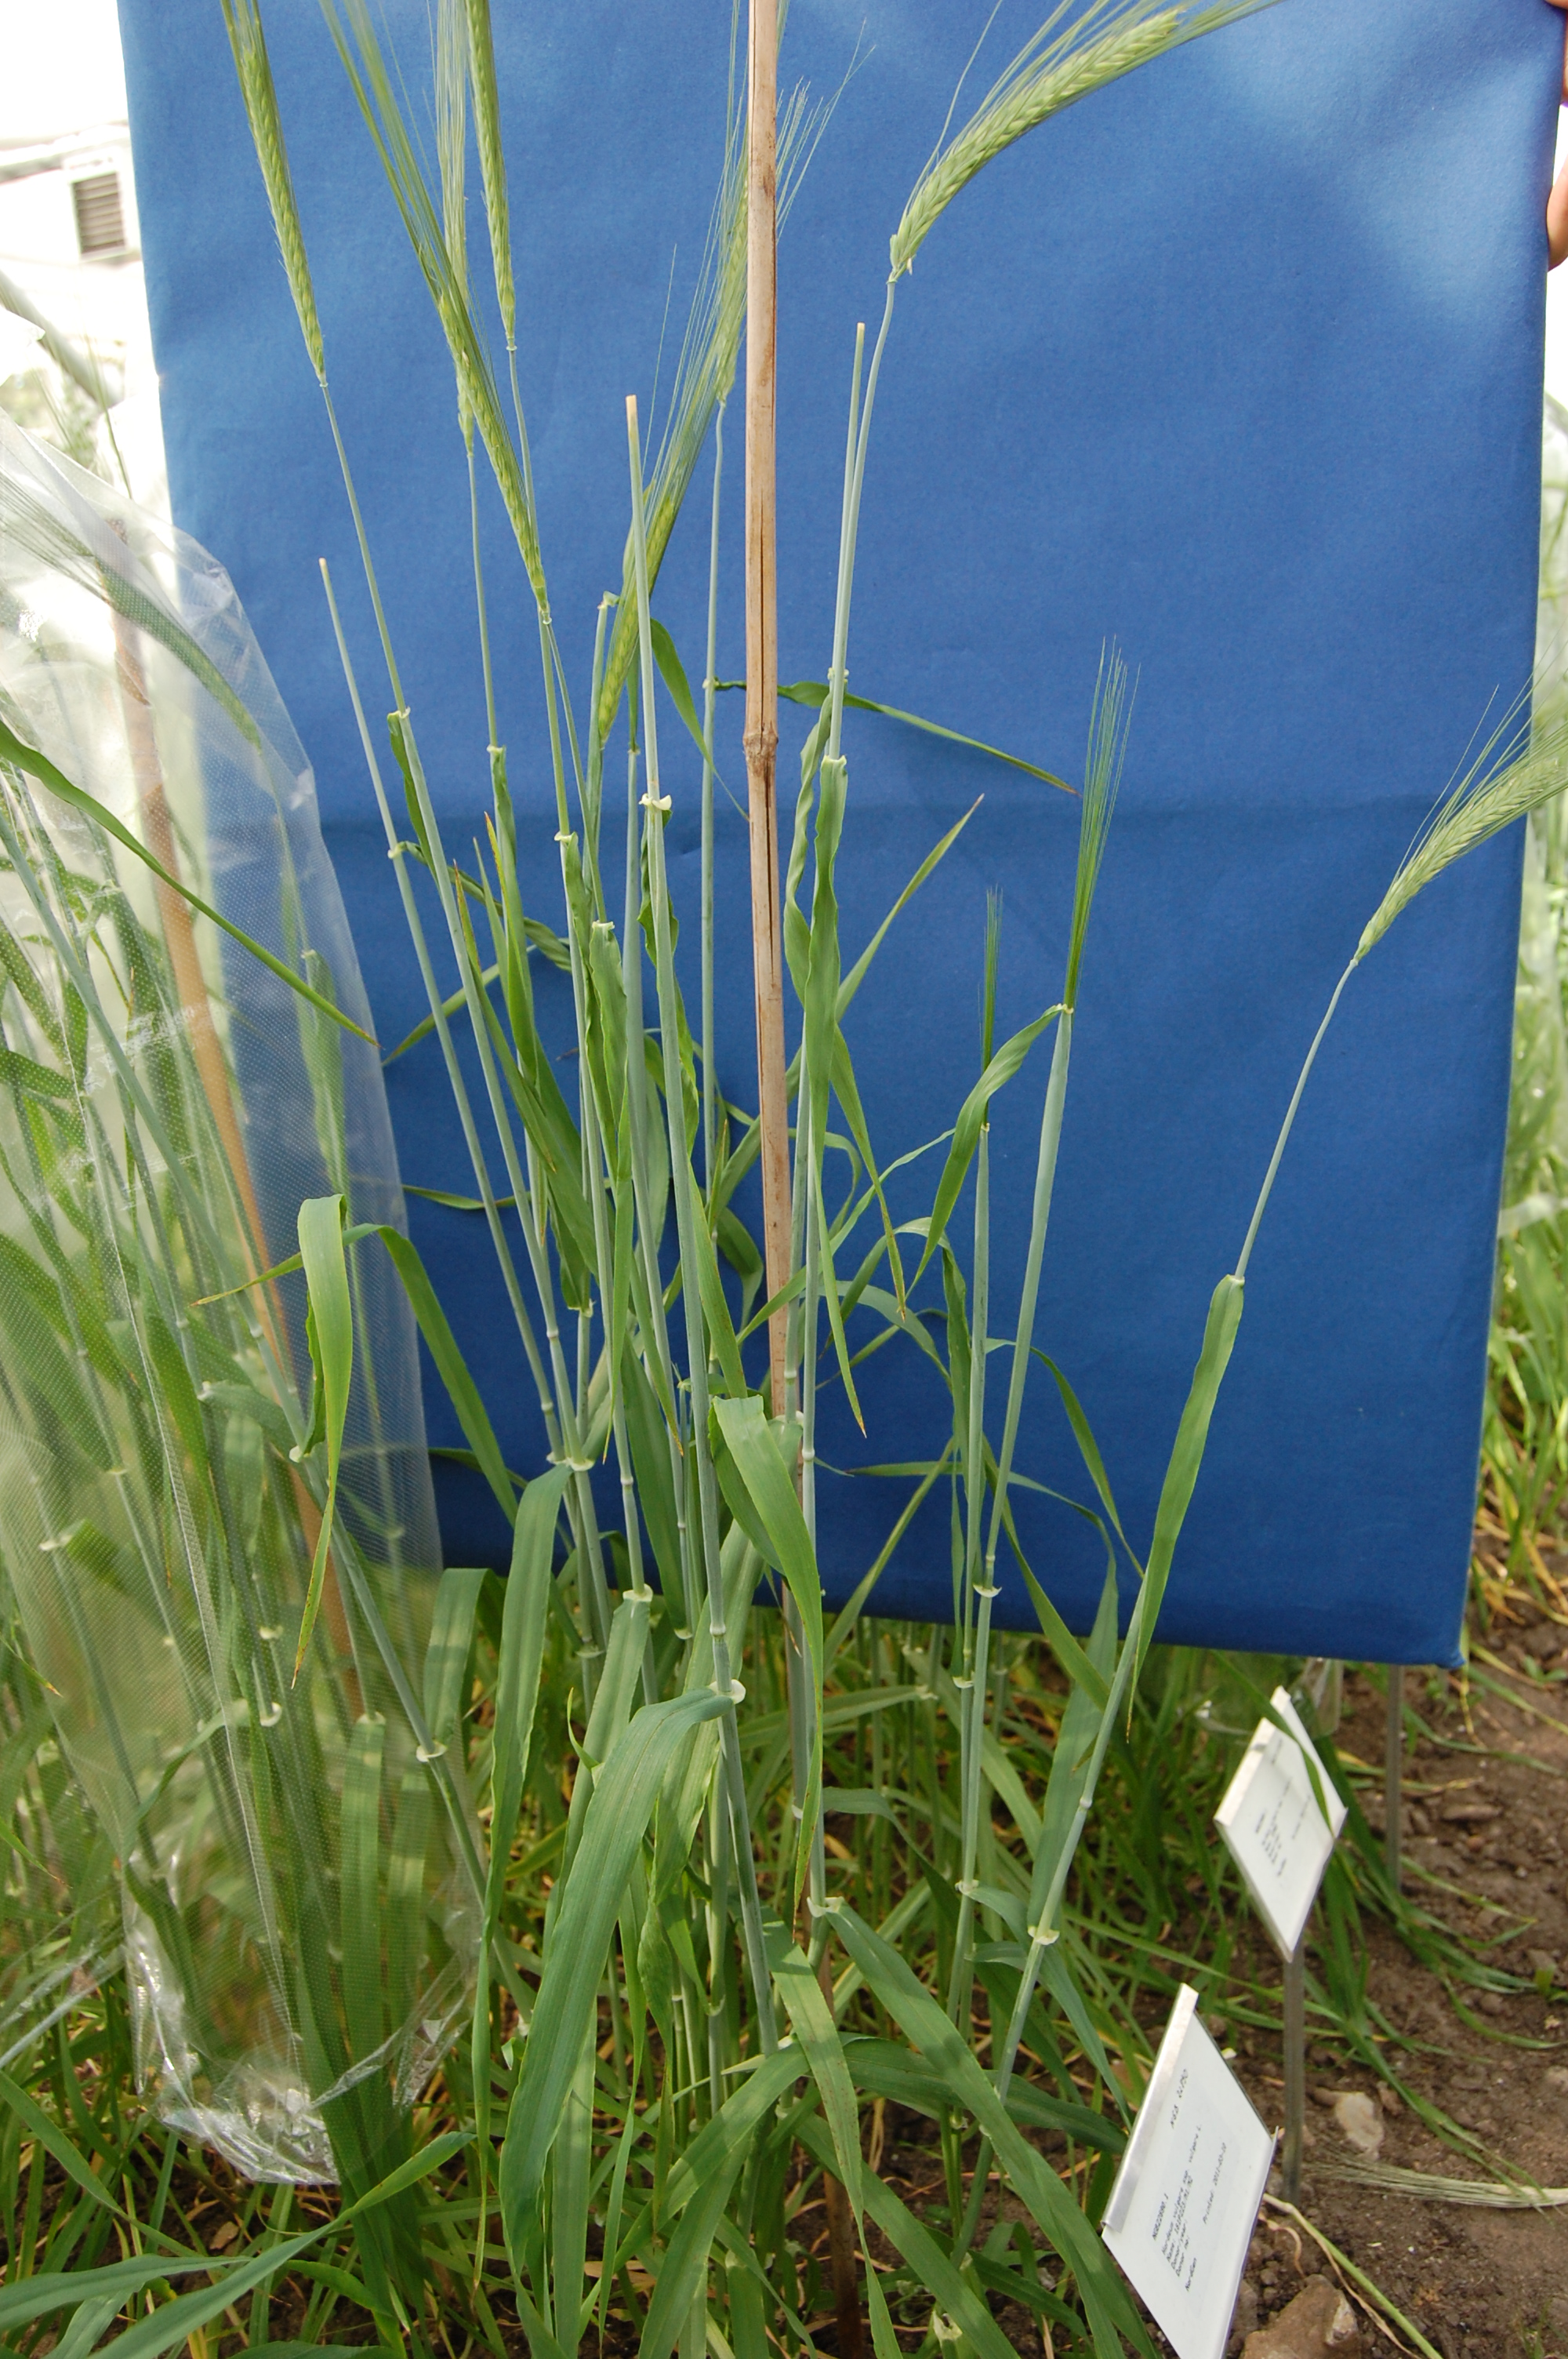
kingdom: Plantae
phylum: Tracheophyta
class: Liliopsida
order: Poales
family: Poaceae
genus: Hordeum
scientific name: Hordeum vulgare
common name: Common barley
